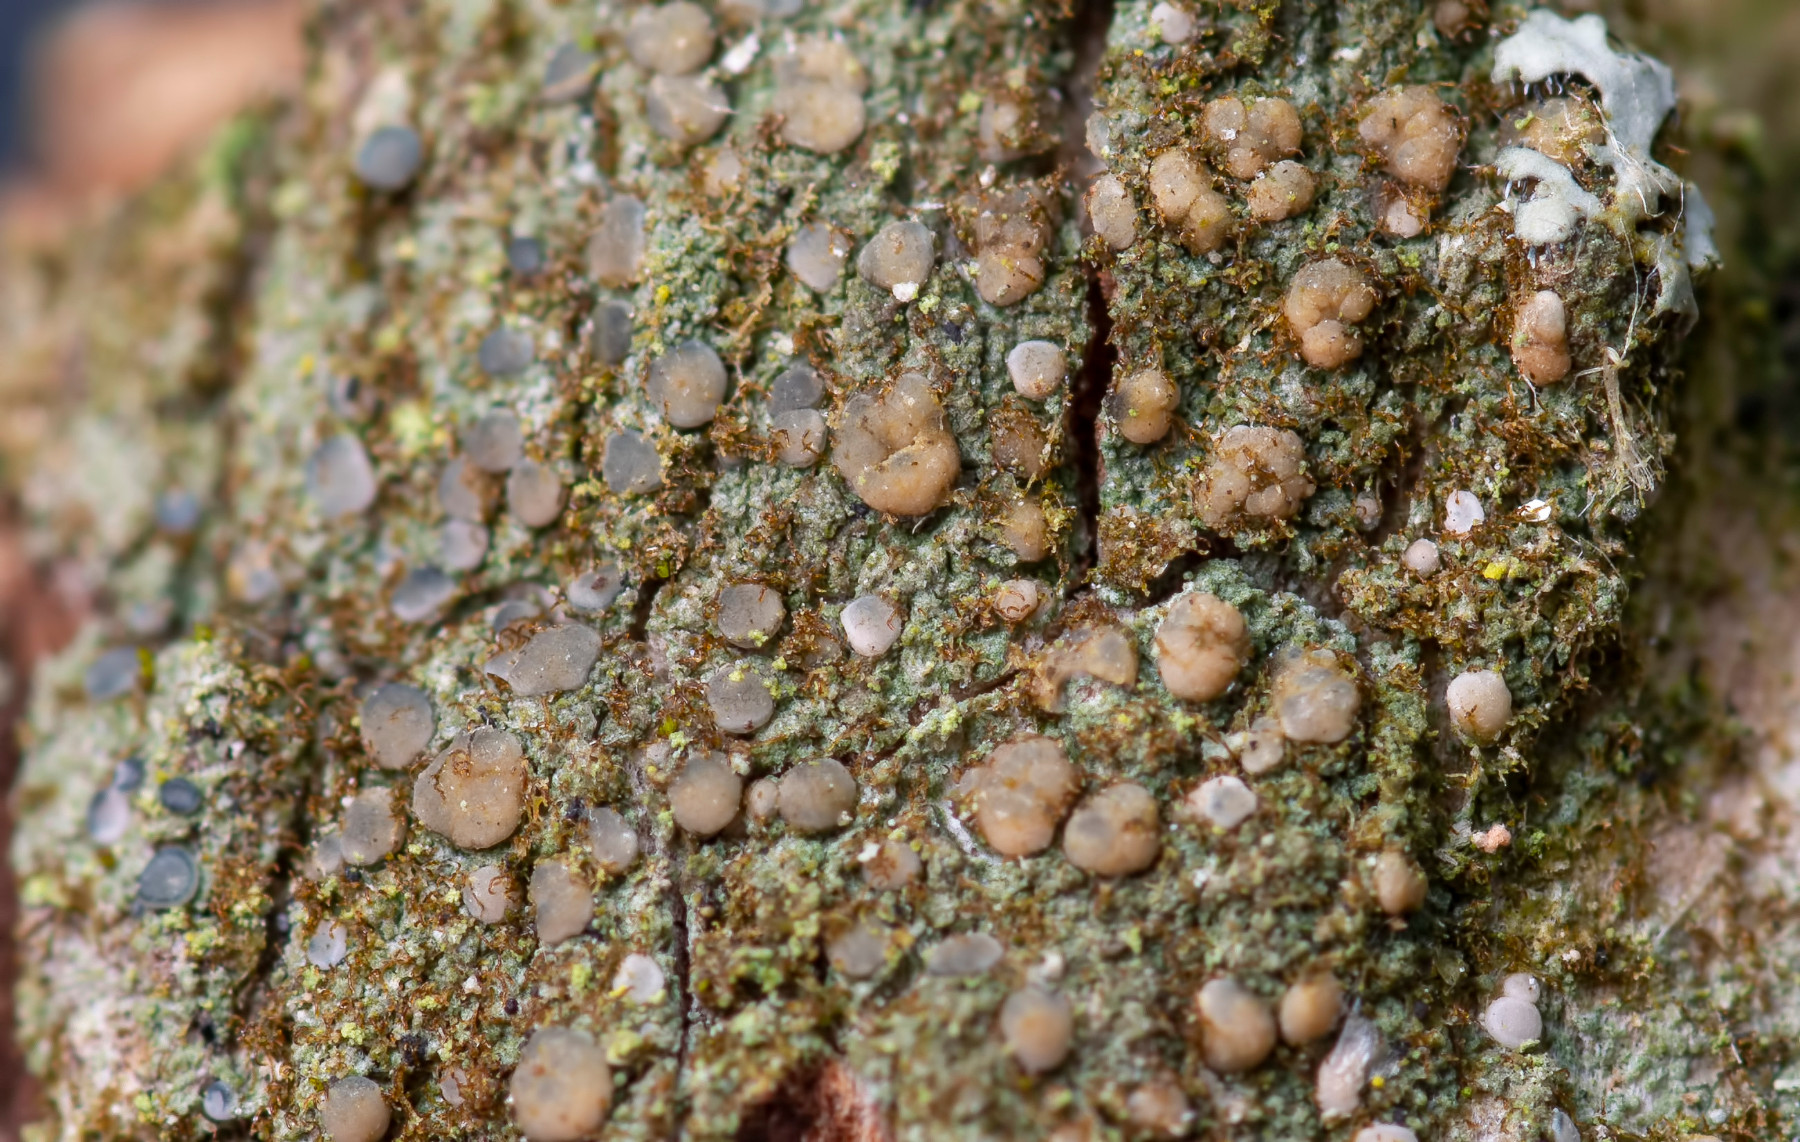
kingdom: Fungi
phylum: Ascomycota
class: Lecanoromycetes
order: Lecanorales
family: Ramalinaceae
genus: Bacidina
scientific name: Bacidina
